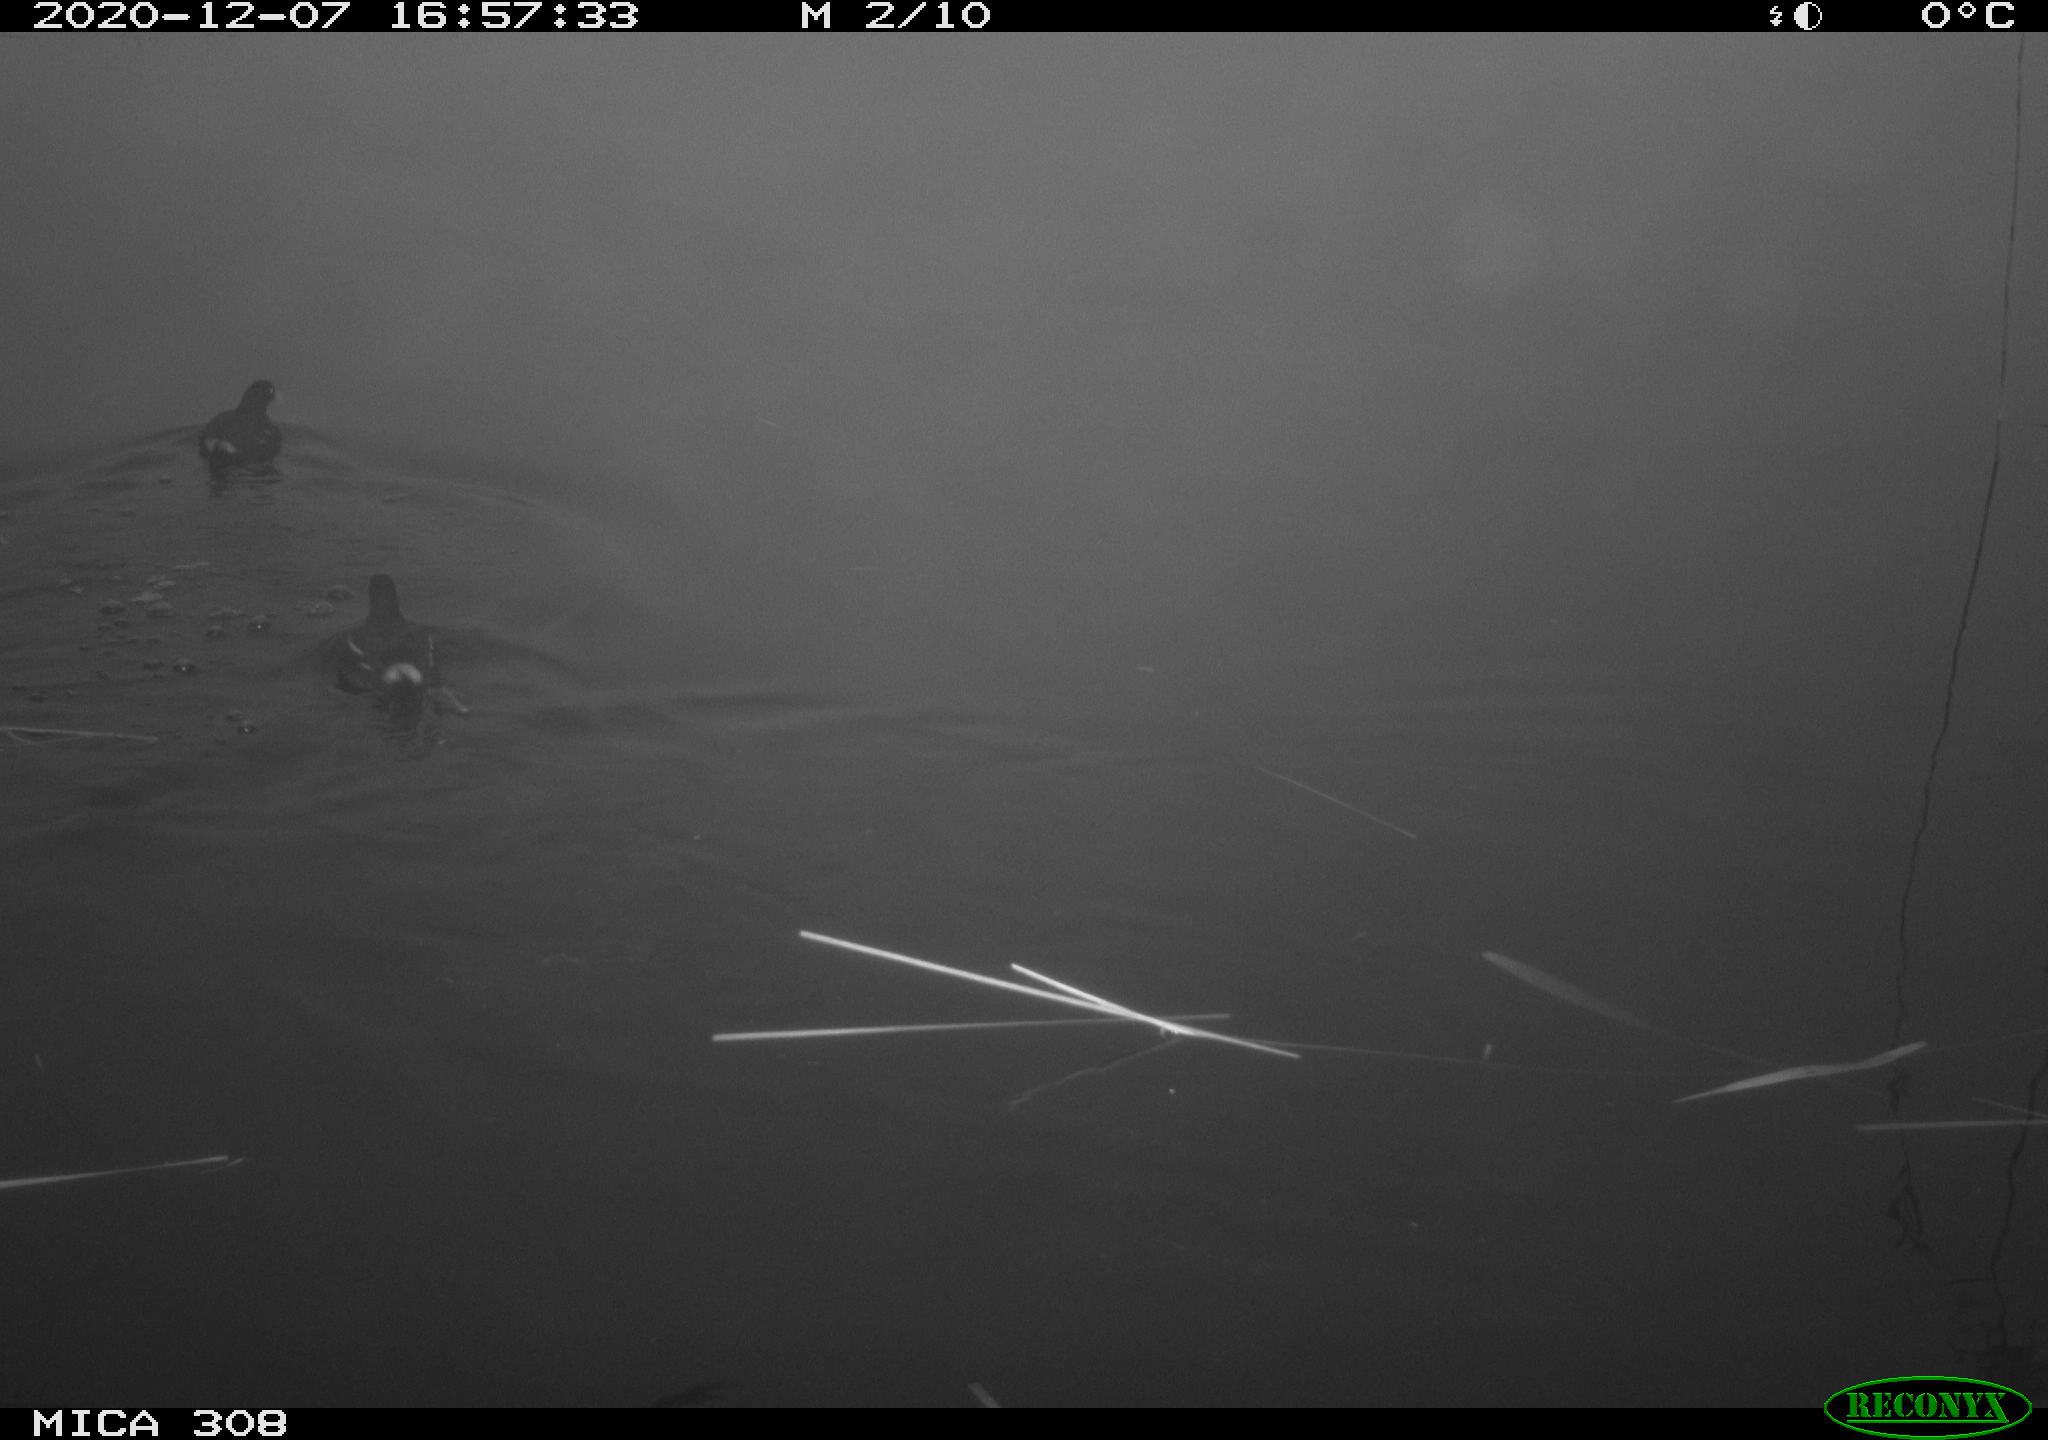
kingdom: Animalia
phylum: Chordata
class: Aves
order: Gruiformes
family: Rallidae
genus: Gallinula
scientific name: Gallinula chloropus
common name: Common moorhen
